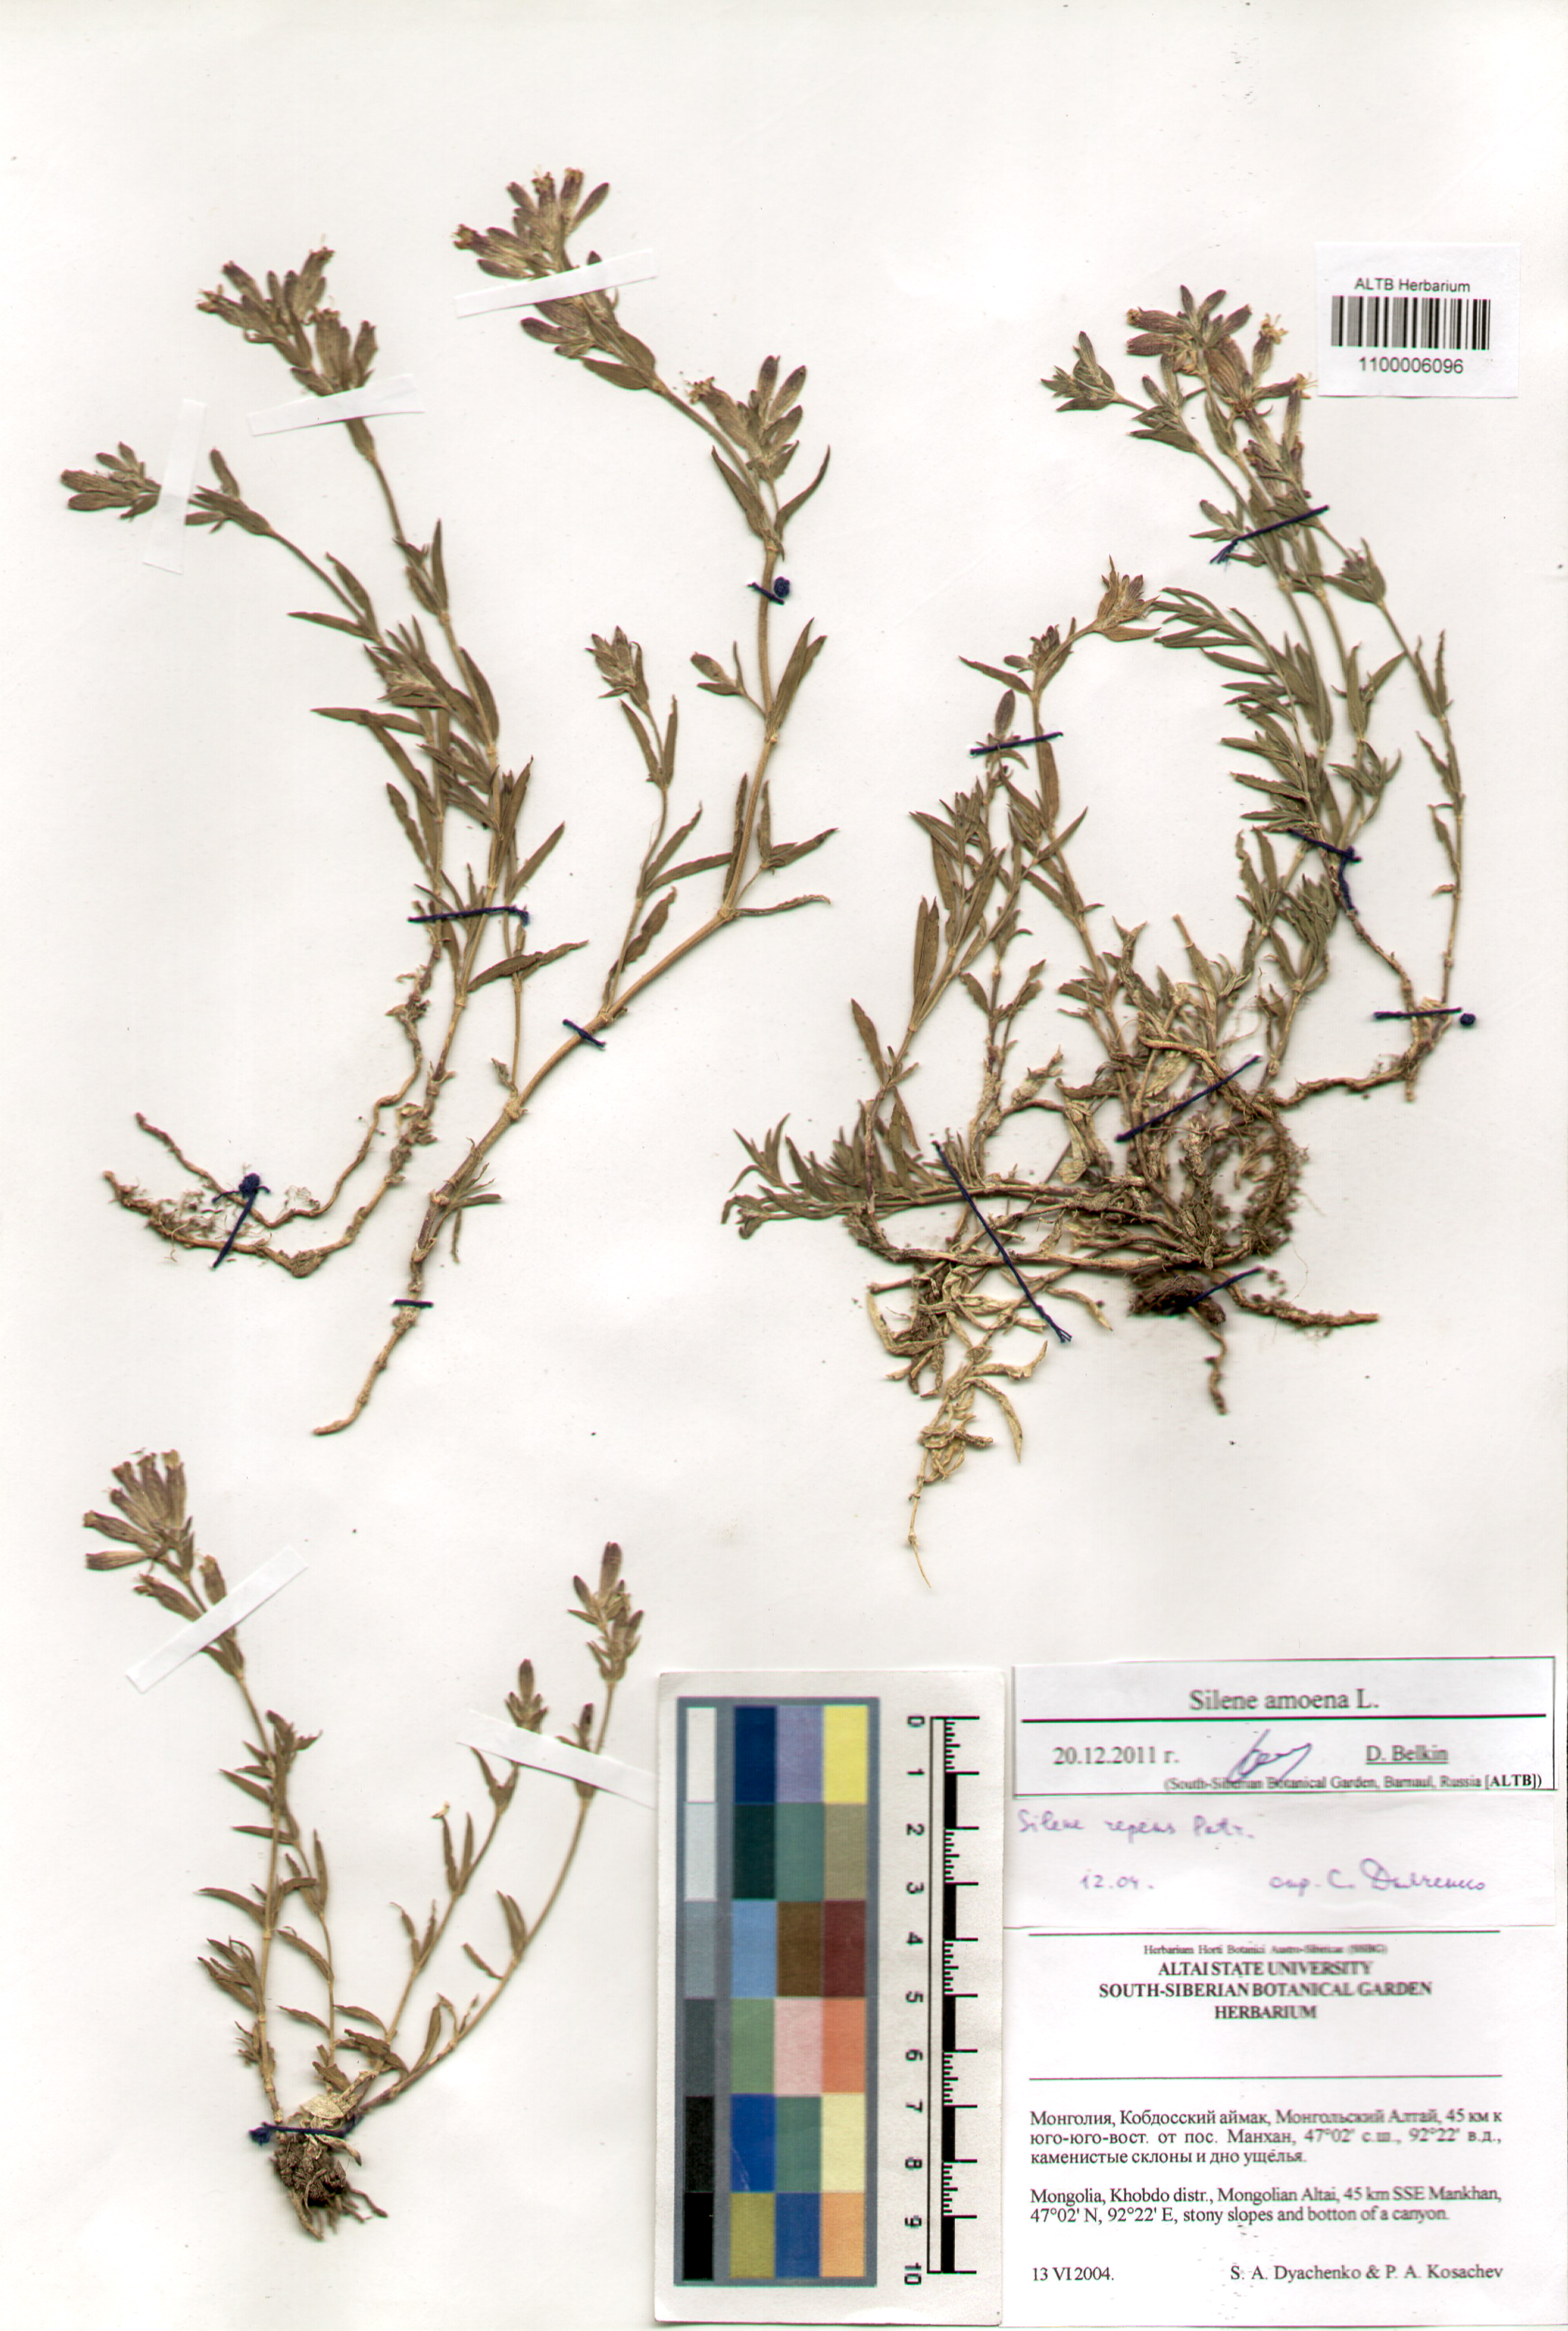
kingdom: Plantae
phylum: Tracheophyta
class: Magnoliopsida
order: Caryophyllales
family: Caryophyllaceae
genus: Silene
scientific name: Silene amoena
